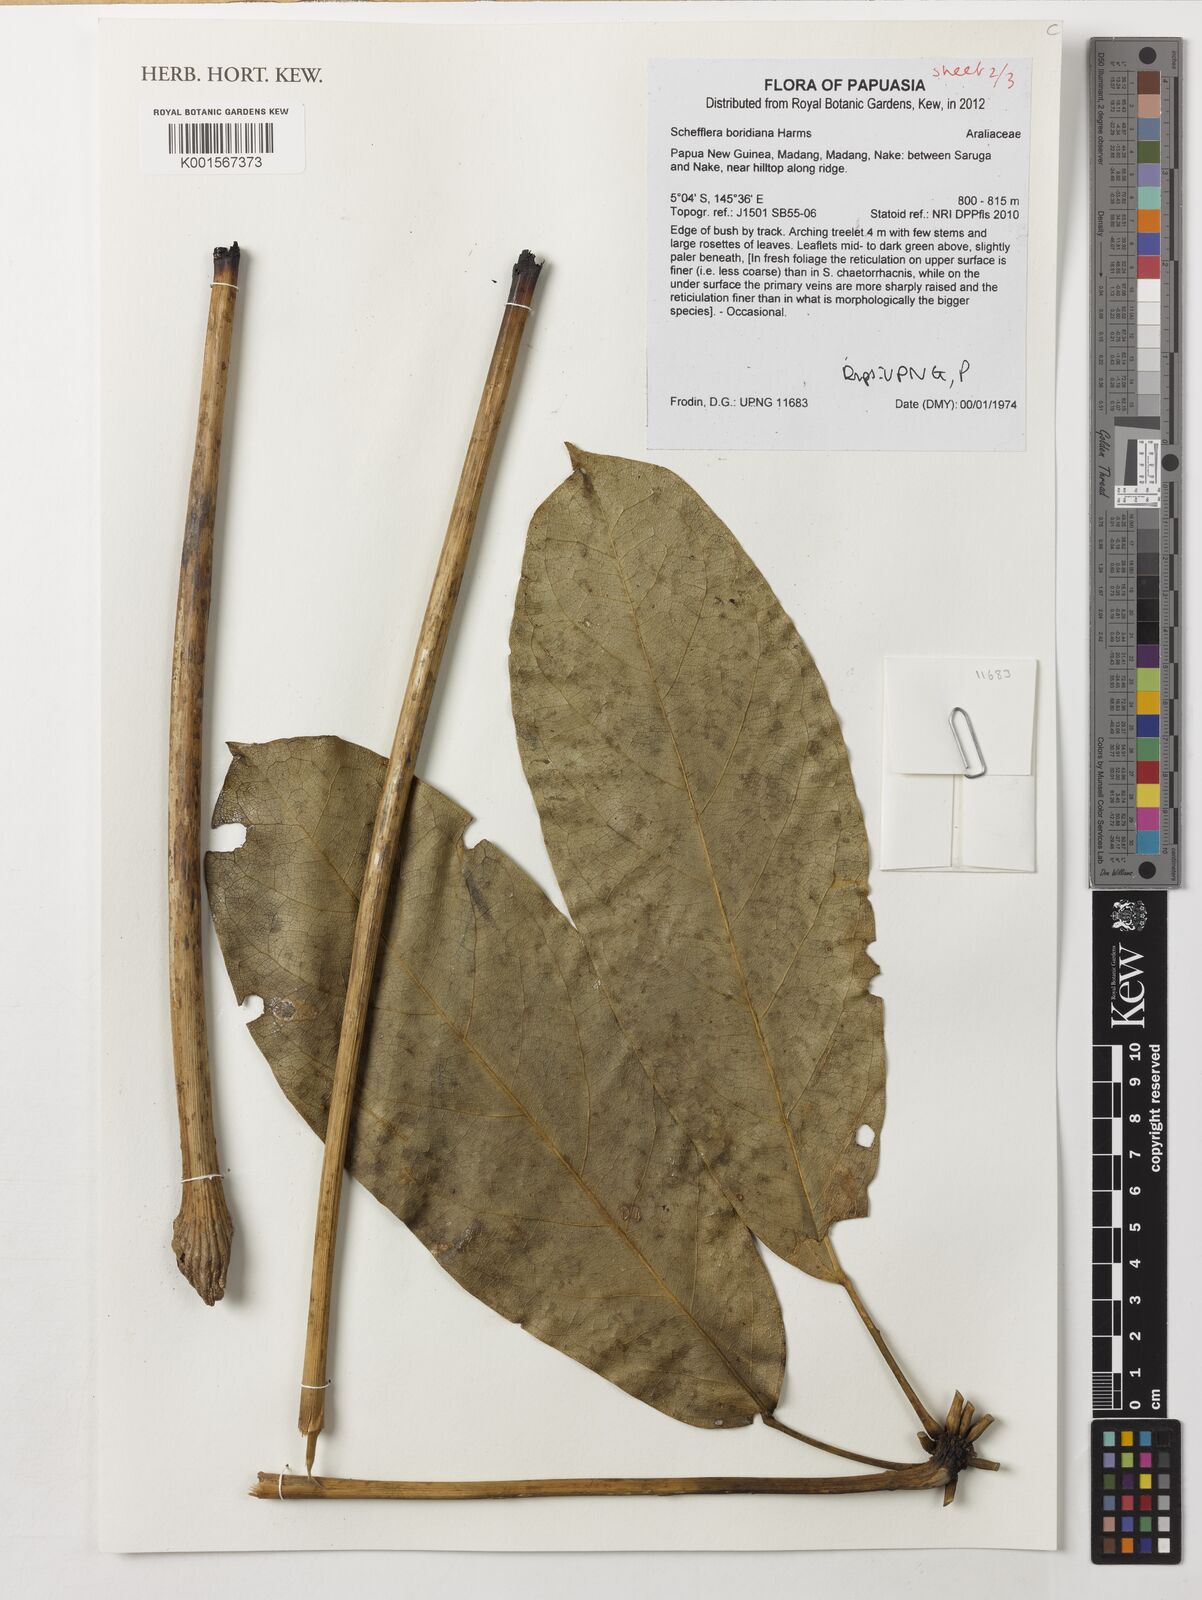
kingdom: Plantae
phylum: Tracheophyta
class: Magnoliopsida
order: Apiales
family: Araliaceae
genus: Heptapleurum
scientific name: Heptapleurum boridianum
